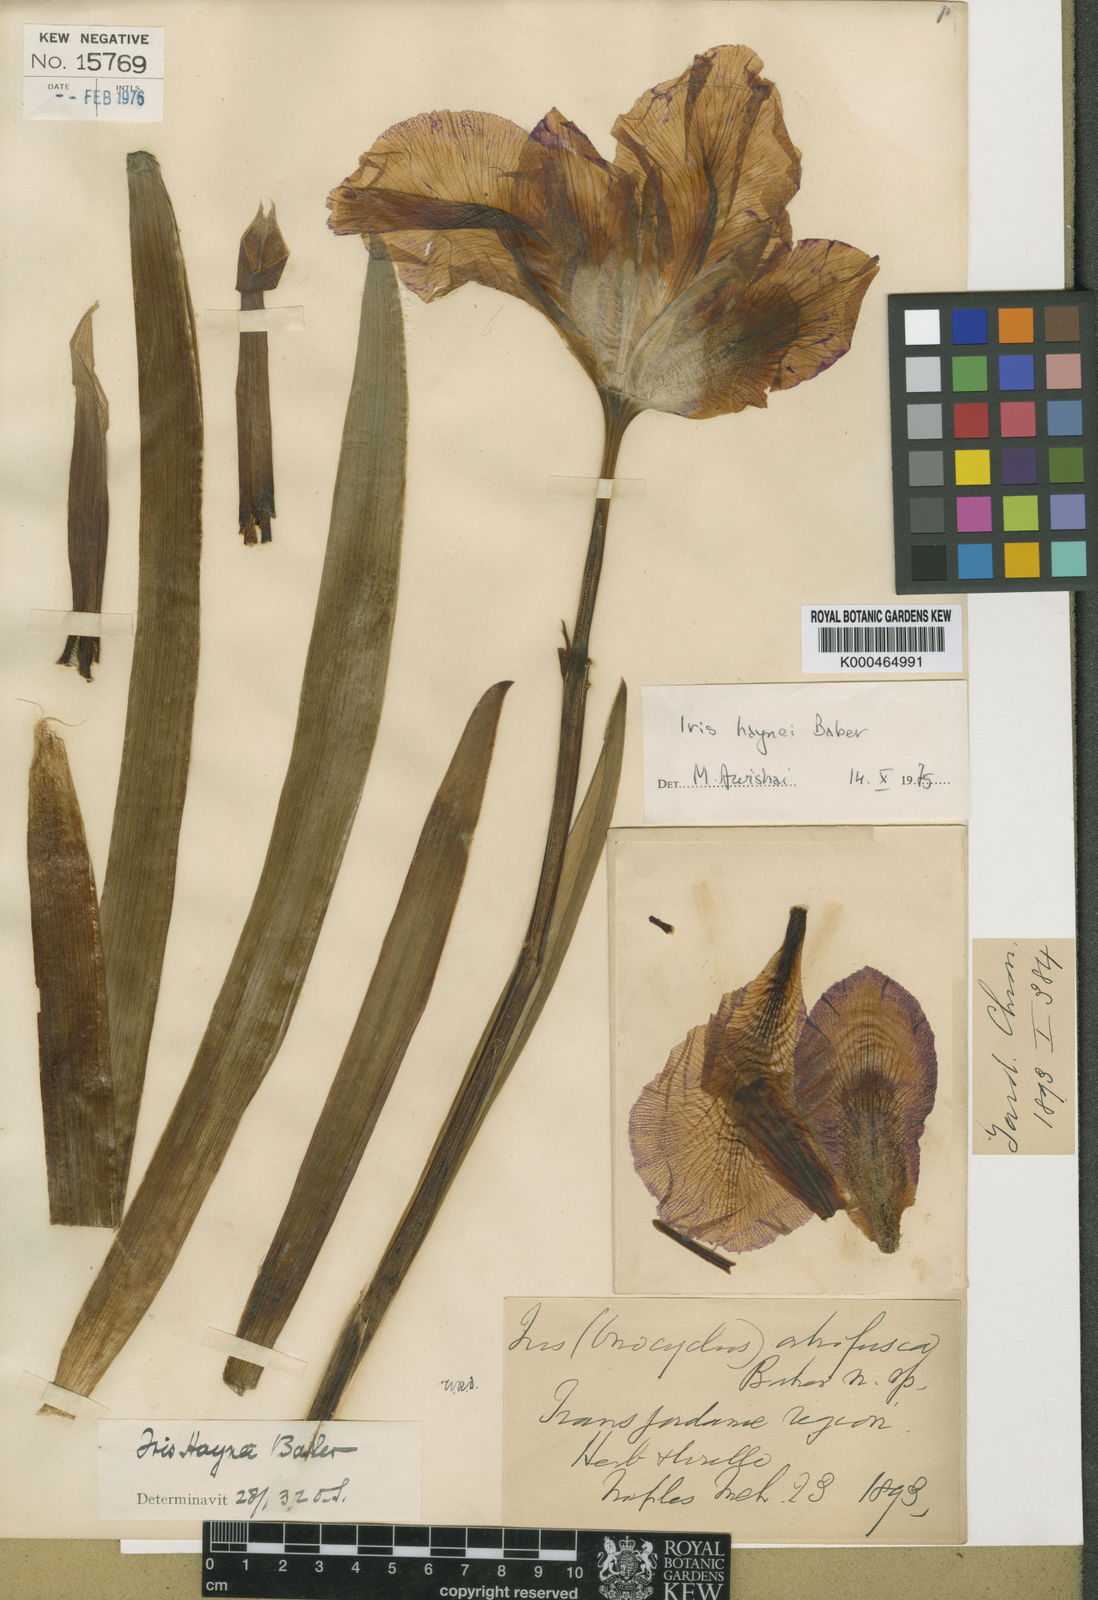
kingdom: Plantae
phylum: Tracheophyta
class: Liliopsida
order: Asparagales
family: Iridaceae
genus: Iris
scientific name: Iris atrofusca
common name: Asshafa iris
